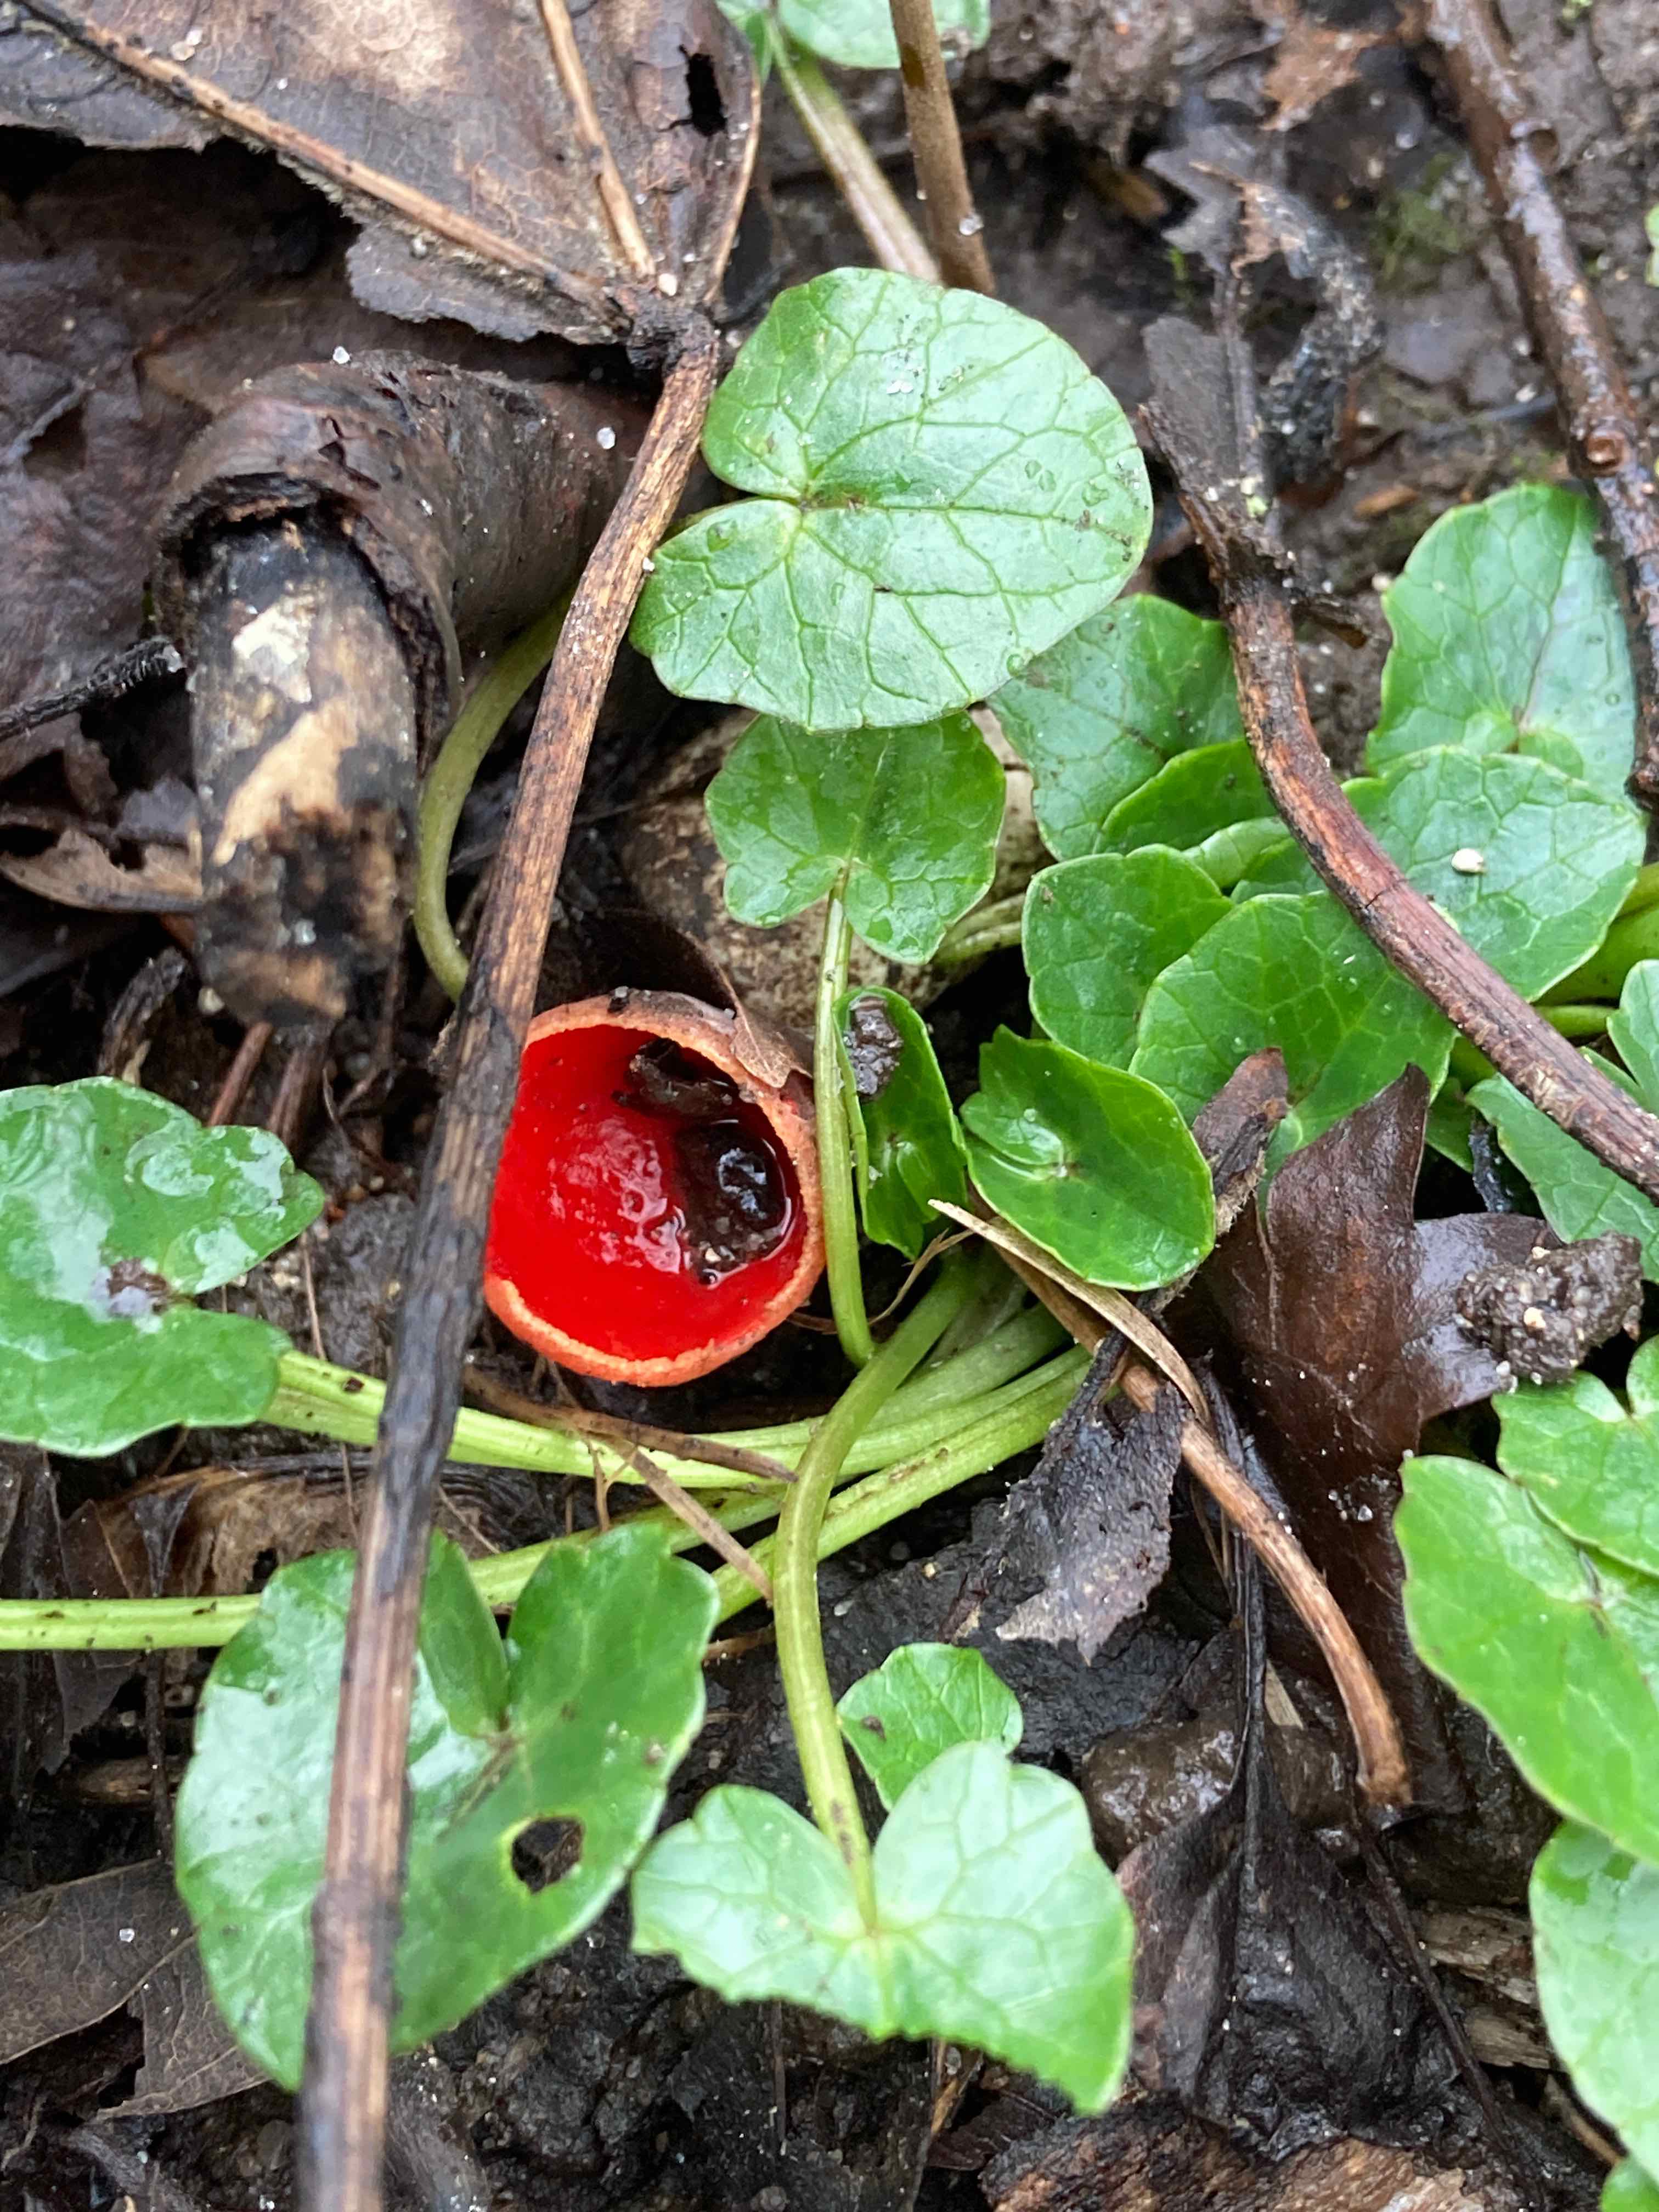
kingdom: Fungi
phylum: Ascomycota
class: Pezizomycetes
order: Pezizales
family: Sarcoscyphaceae
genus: Sarcoscypha
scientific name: Sarcoscypha austriaca
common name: krølhåret pragtbæger
